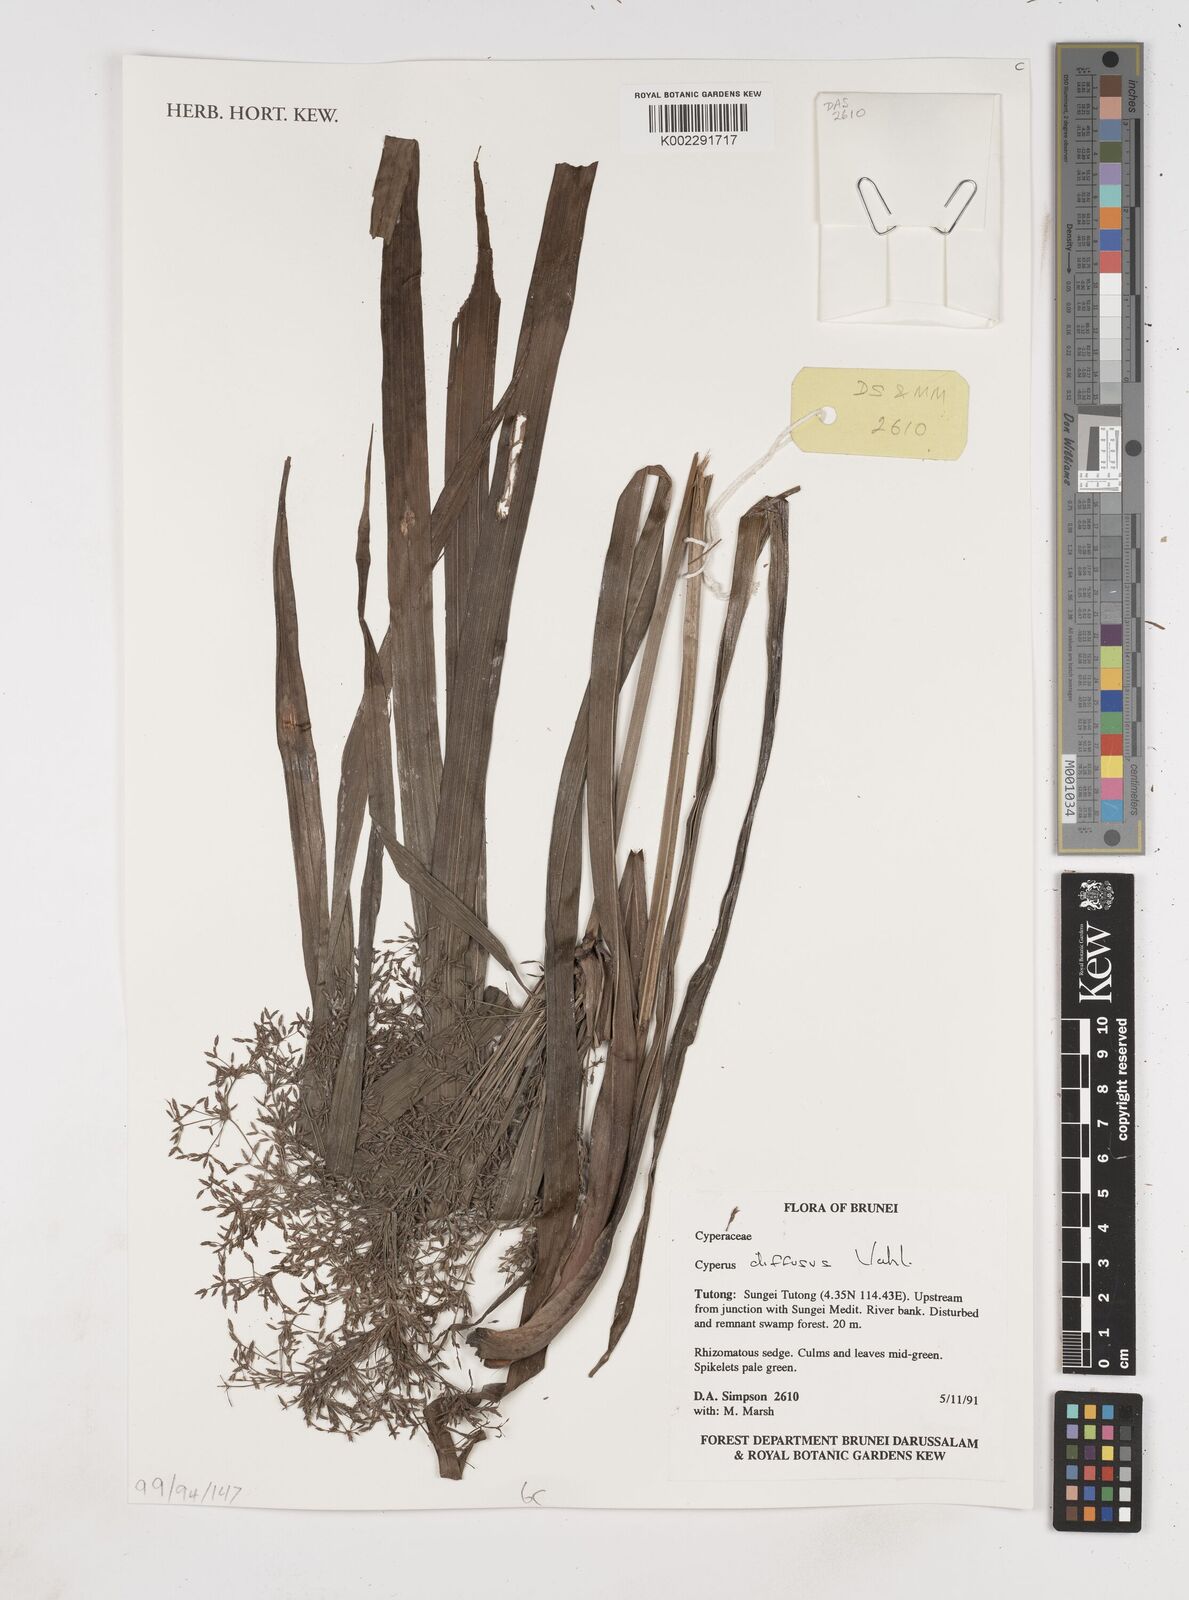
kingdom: Plantae
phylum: Tracheophyta
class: Liliopsida
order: Poales
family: Cyperaceae
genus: Cyperus
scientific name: Cyperus diffusus
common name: Dwarf umbrella grass
